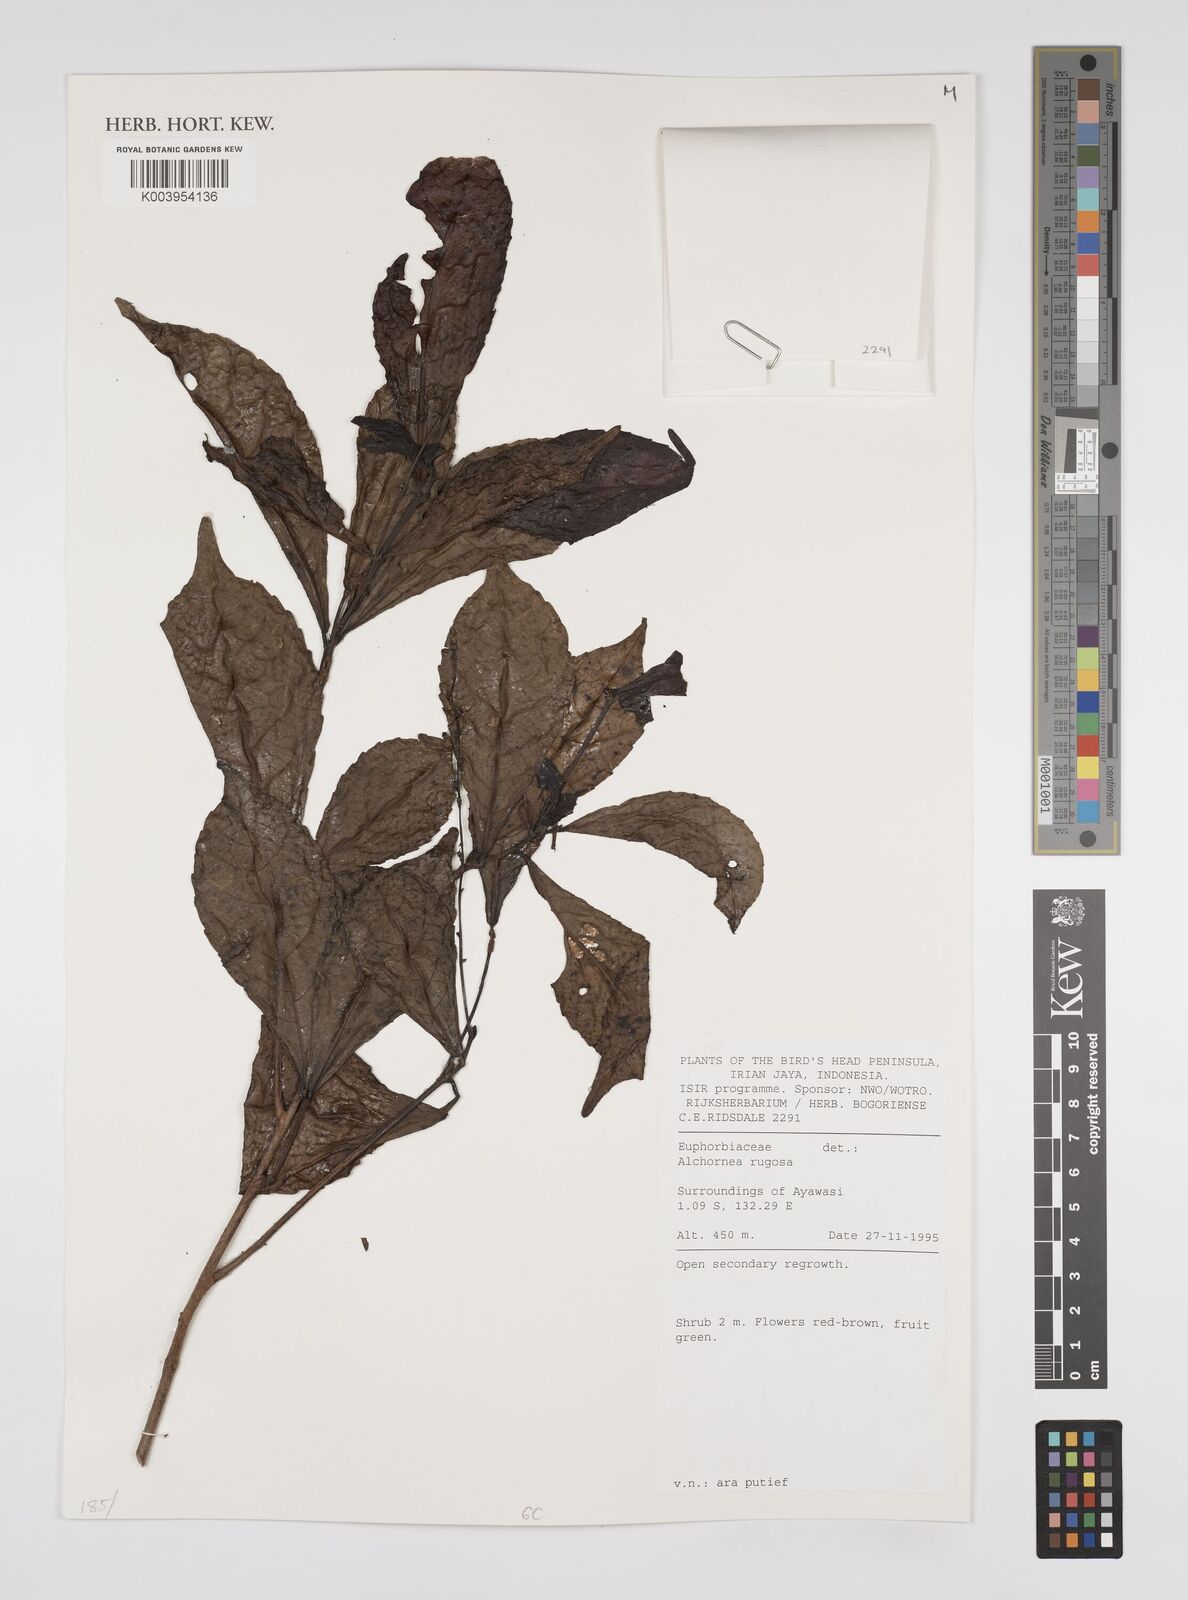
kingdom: Plantae
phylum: Tracheophyta
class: Magnoliopsida
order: Malpighiales
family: Euphorbiaceae
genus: Alchornea
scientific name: Alchornea rugosa
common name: Alchorntree
